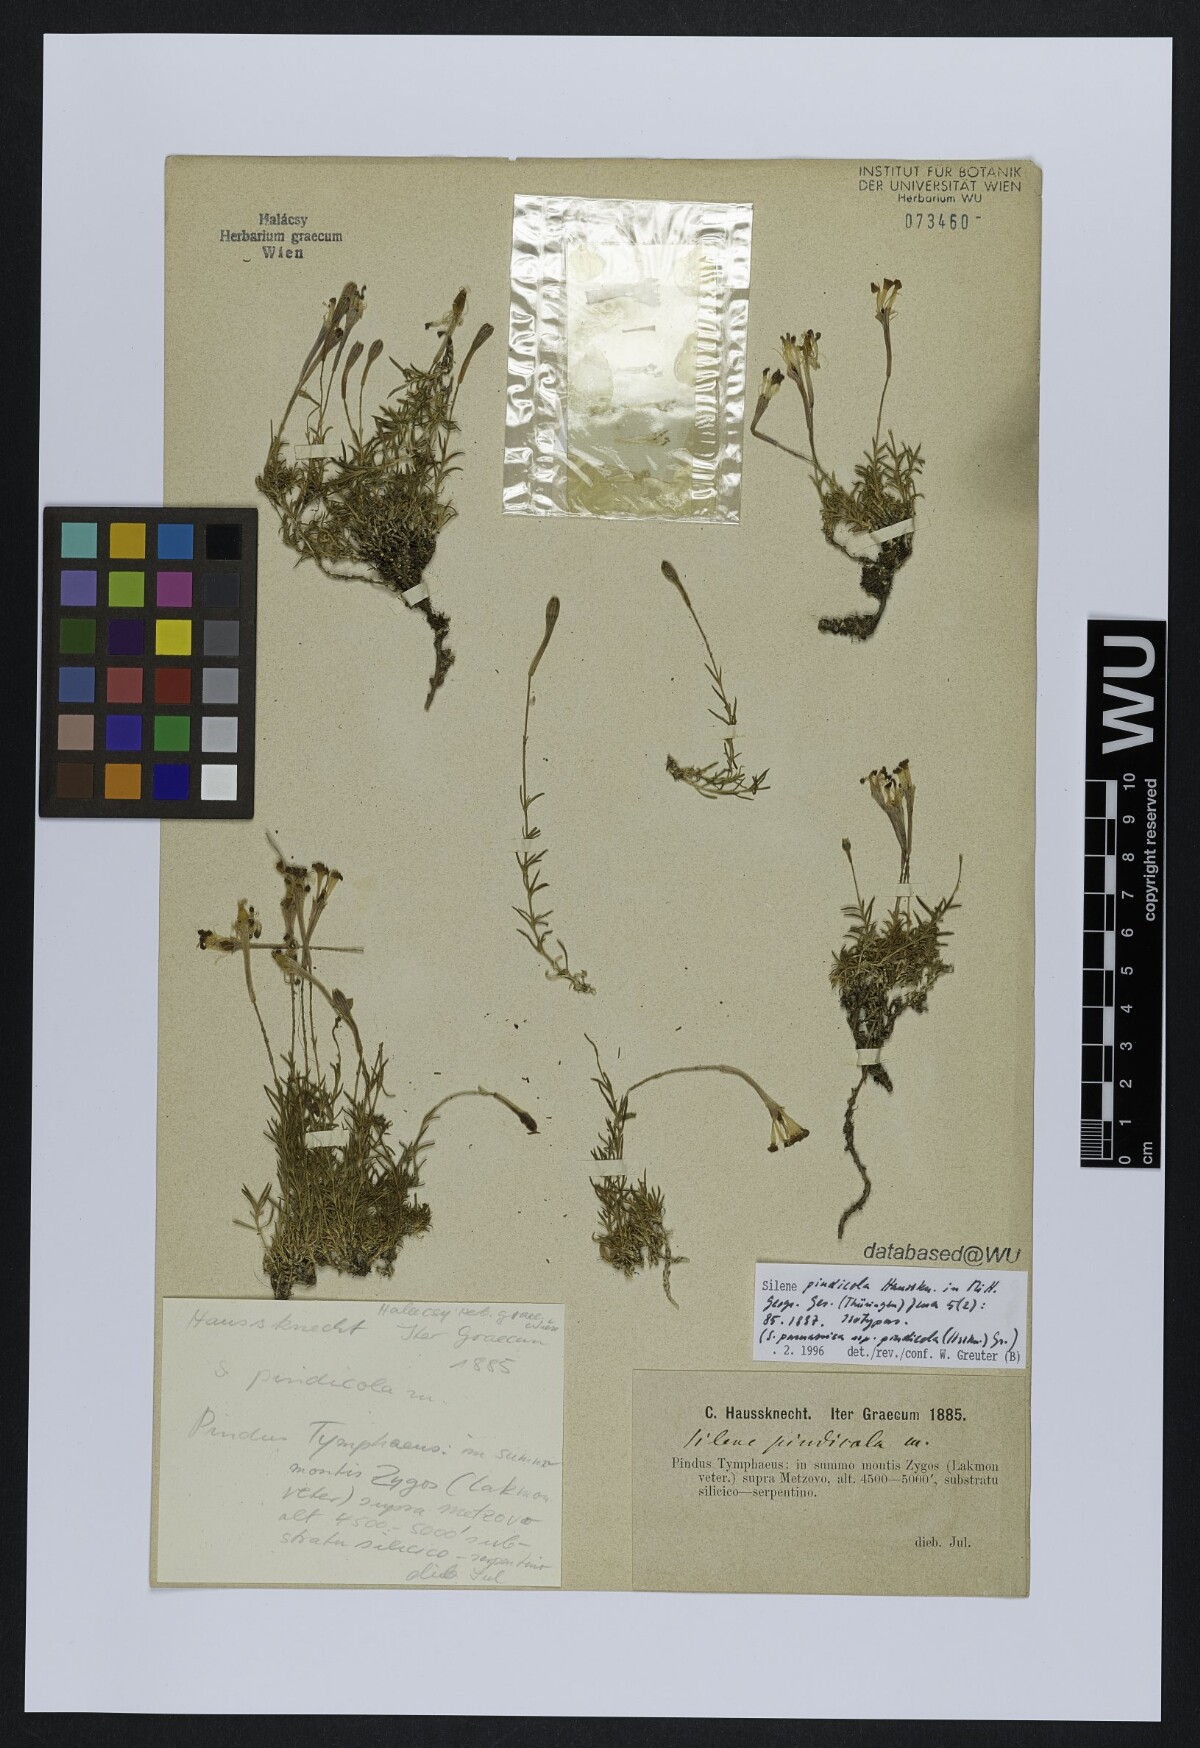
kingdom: Plantae
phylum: Tracheophyta
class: Magnoliopsida
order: Caryophyllales
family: Caryophyllaceae
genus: Silene
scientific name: Silene parnassica
